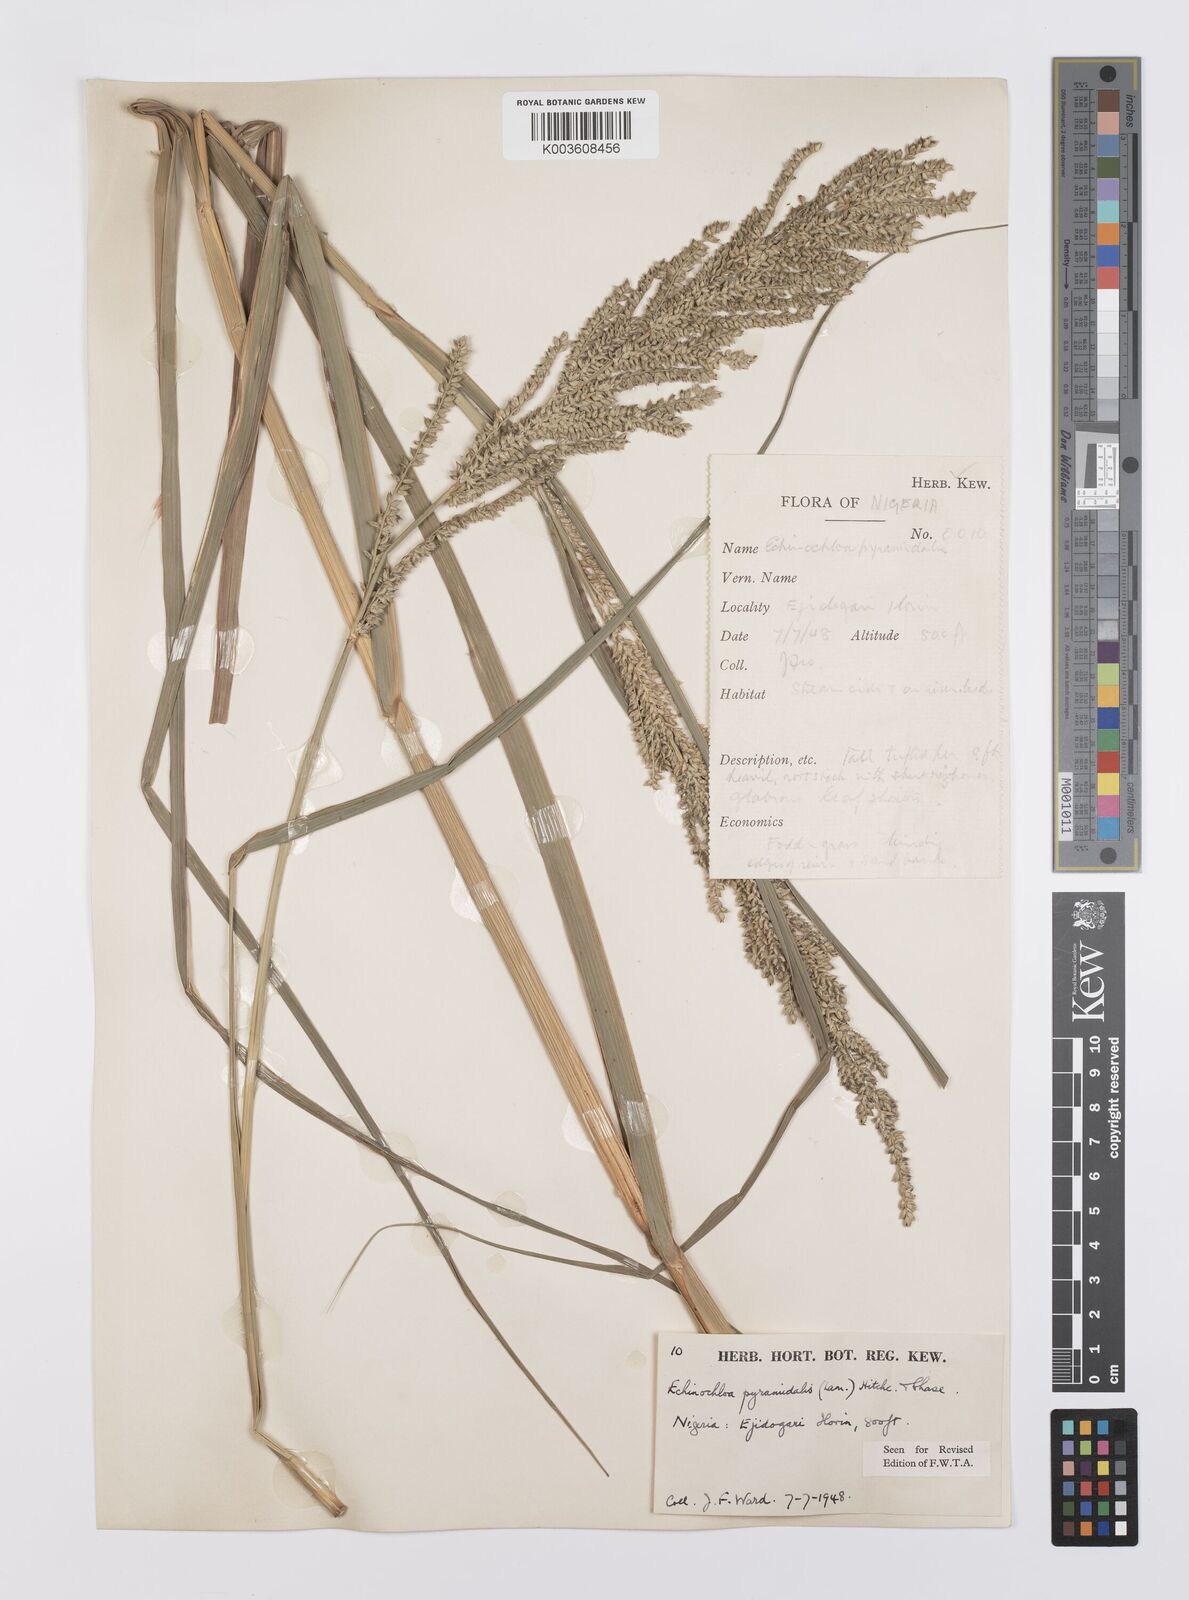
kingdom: Plantae
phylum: Tracheophyta
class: Liliopsida
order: Poales
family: Poaceae
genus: Echinochloa
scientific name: Echinochloa pyramidalis
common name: Antelope grass
